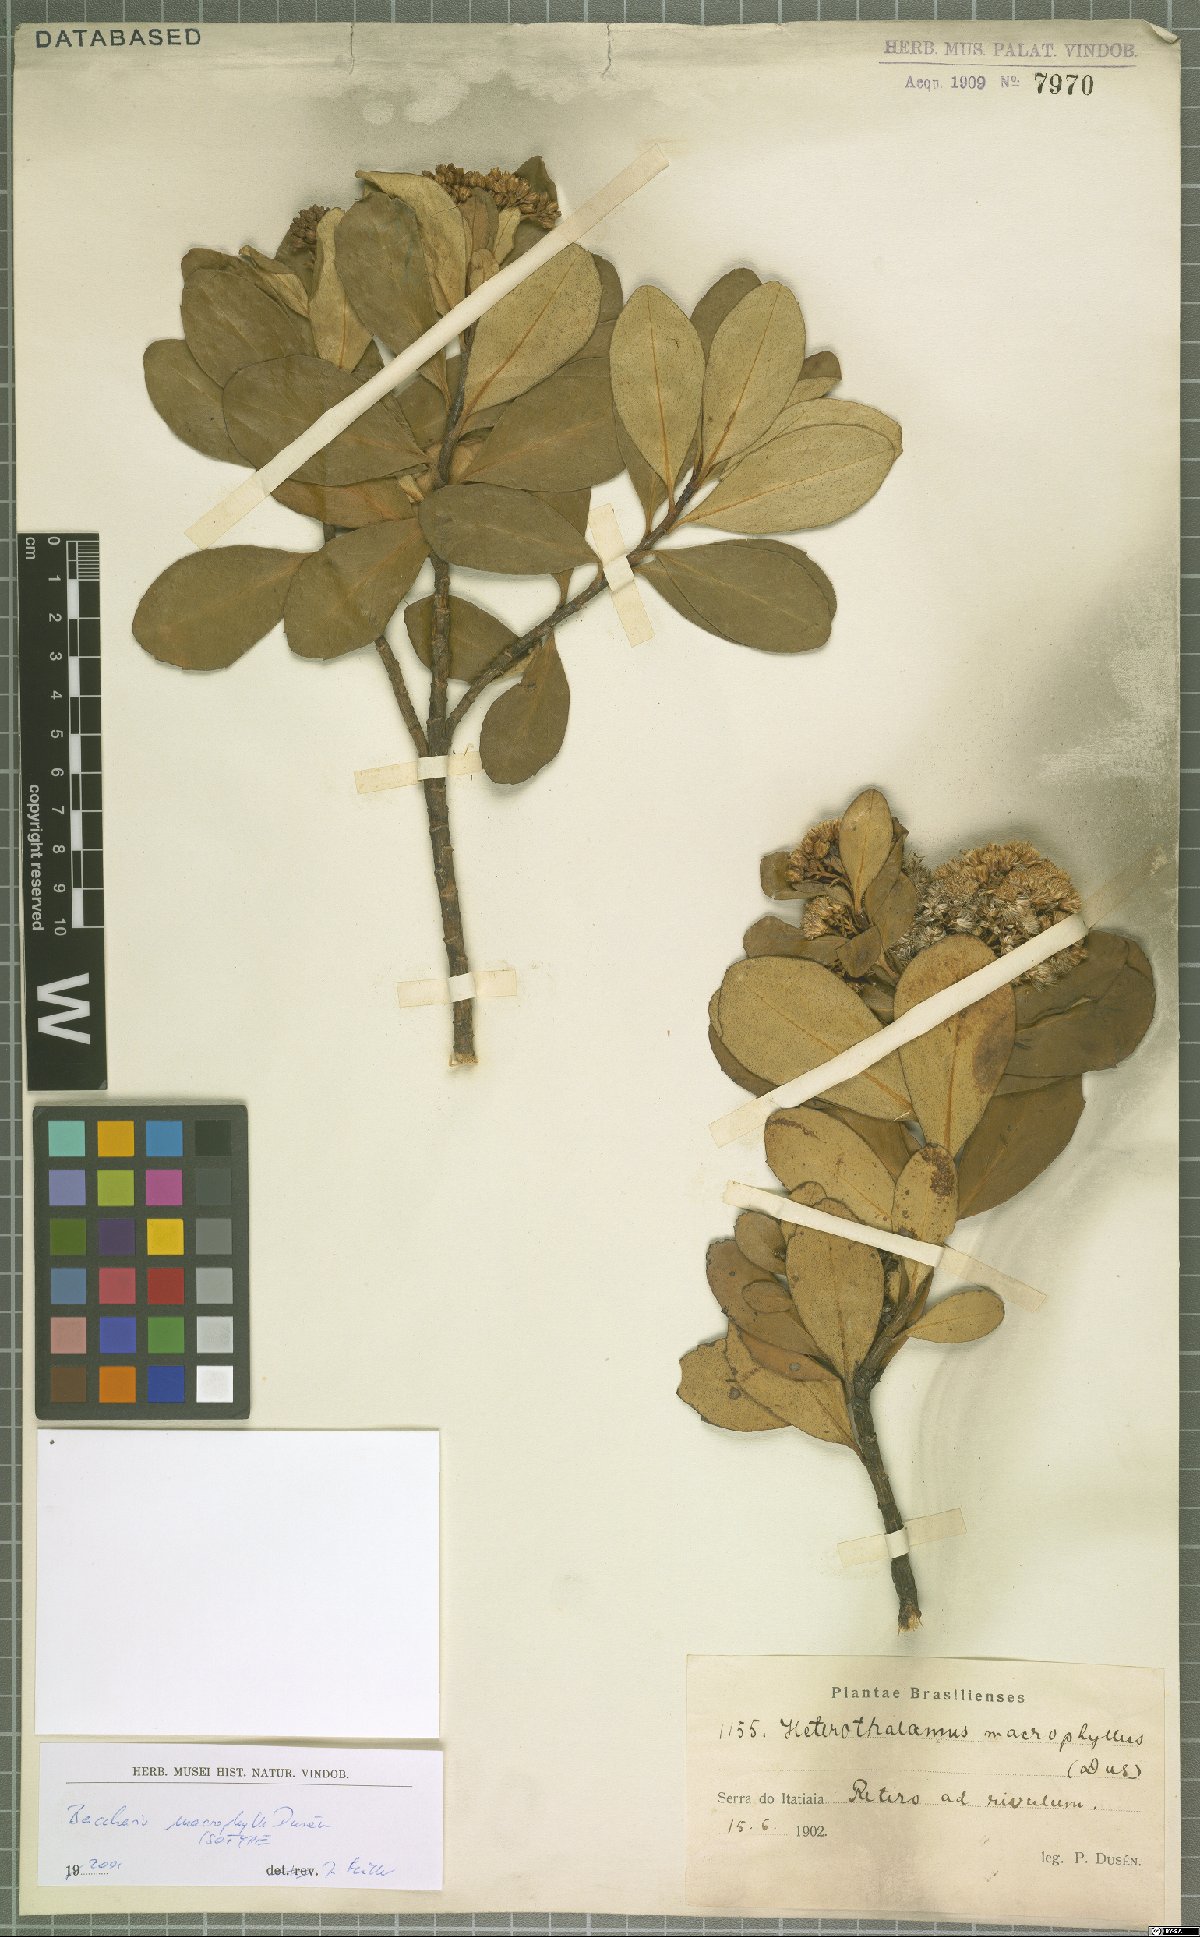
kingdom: Plantae
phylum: Tracheophyta
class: Magnoliopsida
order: Asterales
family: Asteraceae
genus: Pseudobaccharis
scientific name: Pseudobaccharis macrophylla
